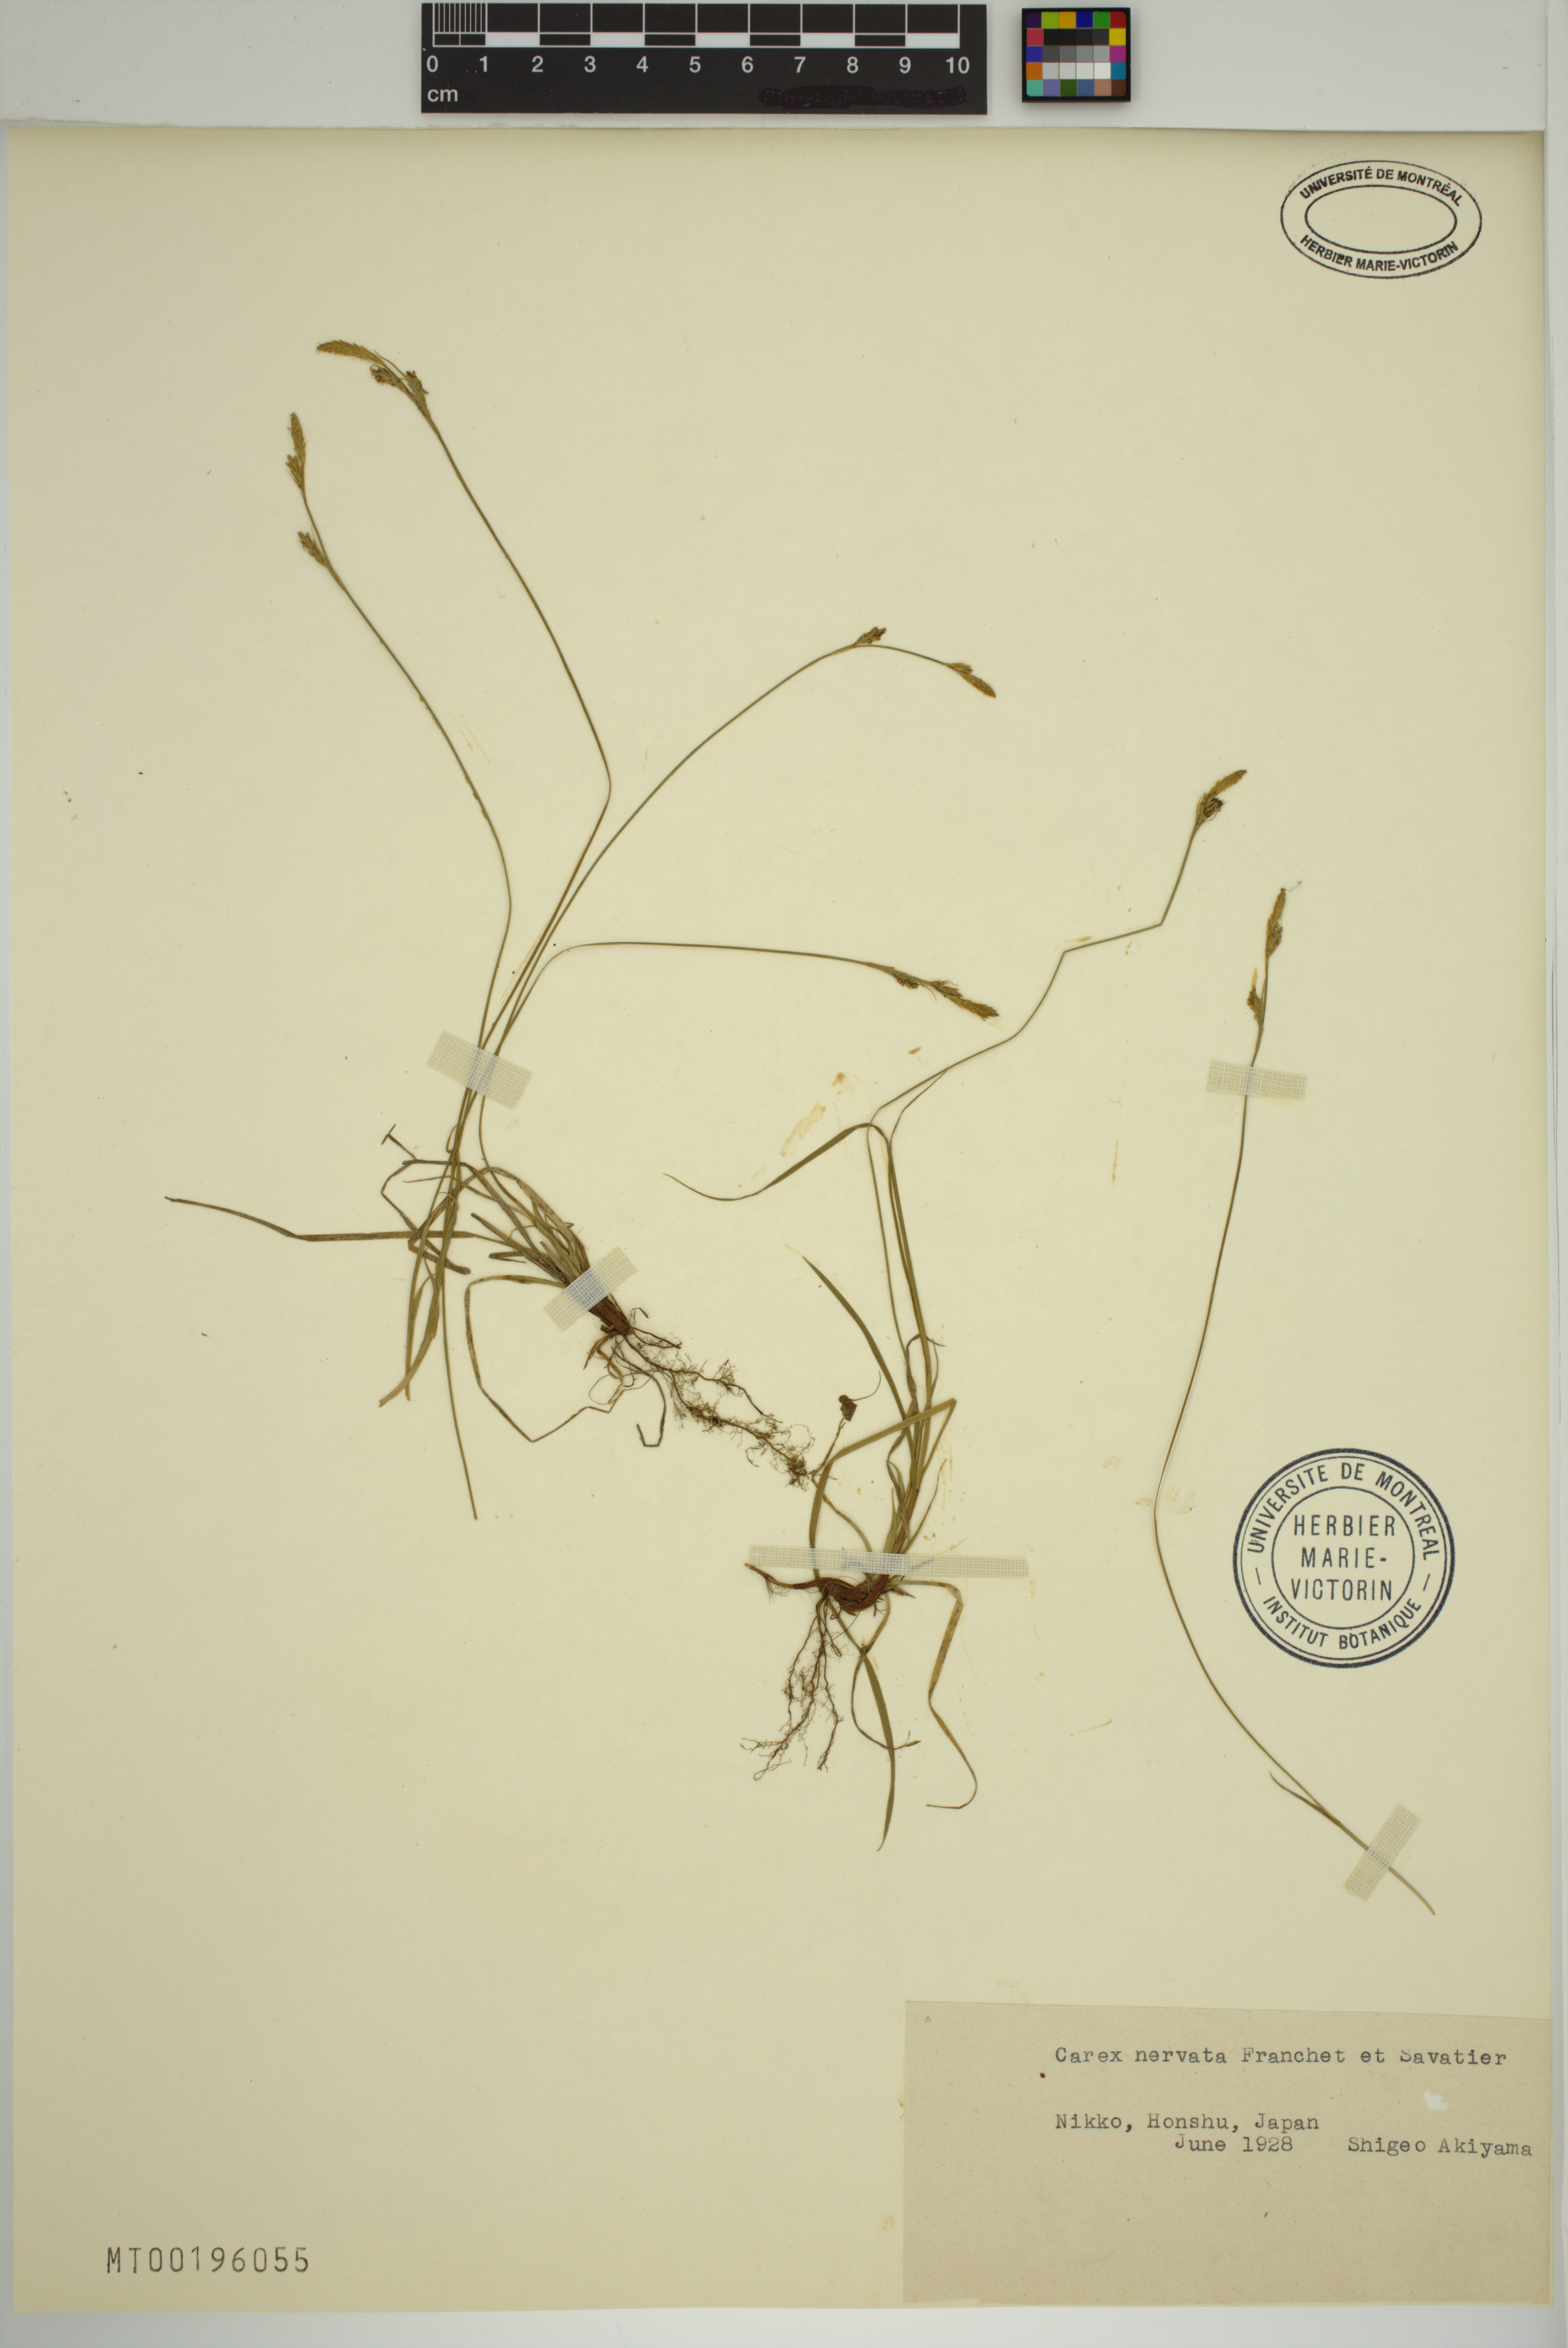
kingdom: Plantae
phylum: Tracheophyta
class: Liliopsida
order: Poales
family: Cyperaceae
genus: Carex
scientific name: Carex nervata
